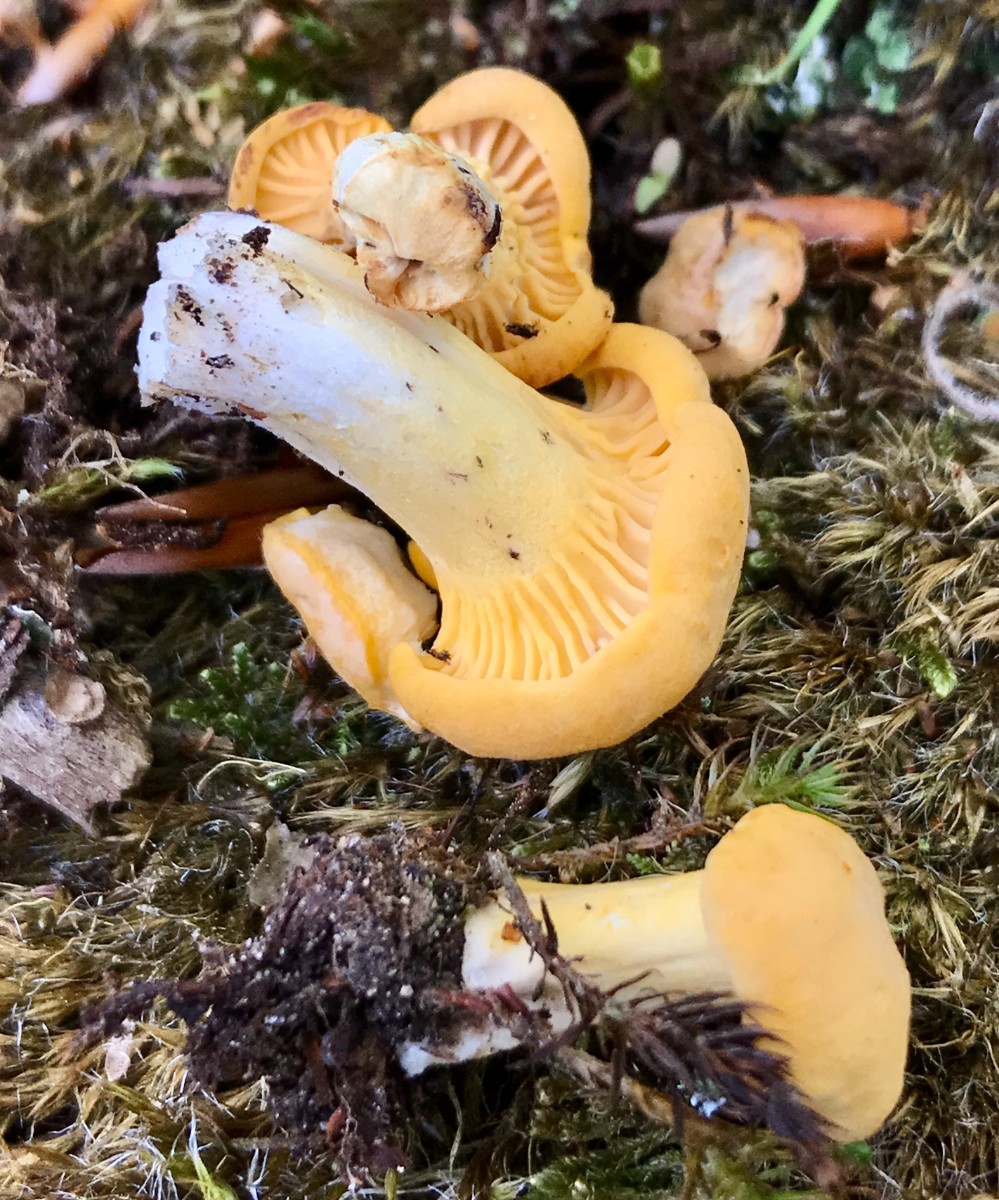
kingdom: Fungi
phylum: Basidiomycota
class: Agaricomycetes
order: Cantharellales
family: Hydnaceae
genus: Cantharellus
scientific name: Cantharellus pallens
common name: bleg kantarel
